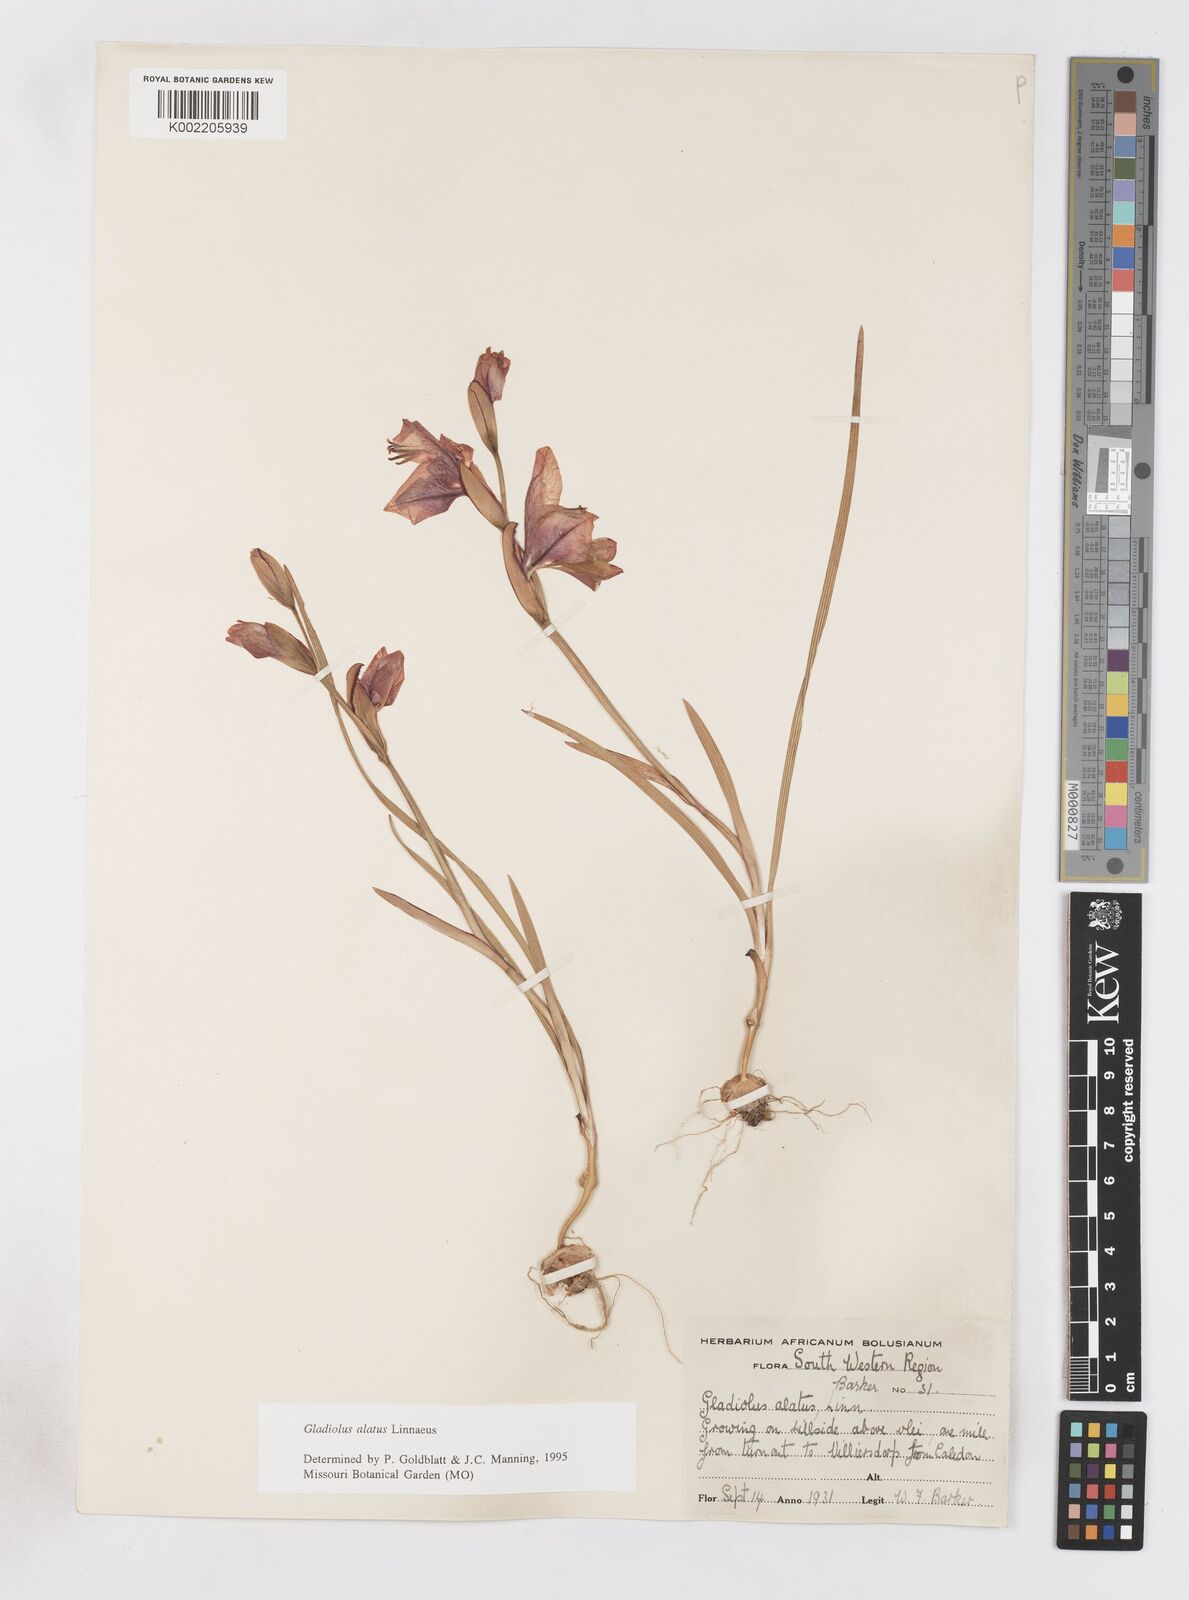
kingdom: Plantae
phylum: Tracheophyta
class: Liliopsida
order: Asparagales
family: Iridaceae
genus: Gladiolus
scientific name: Gladiolus alatus
